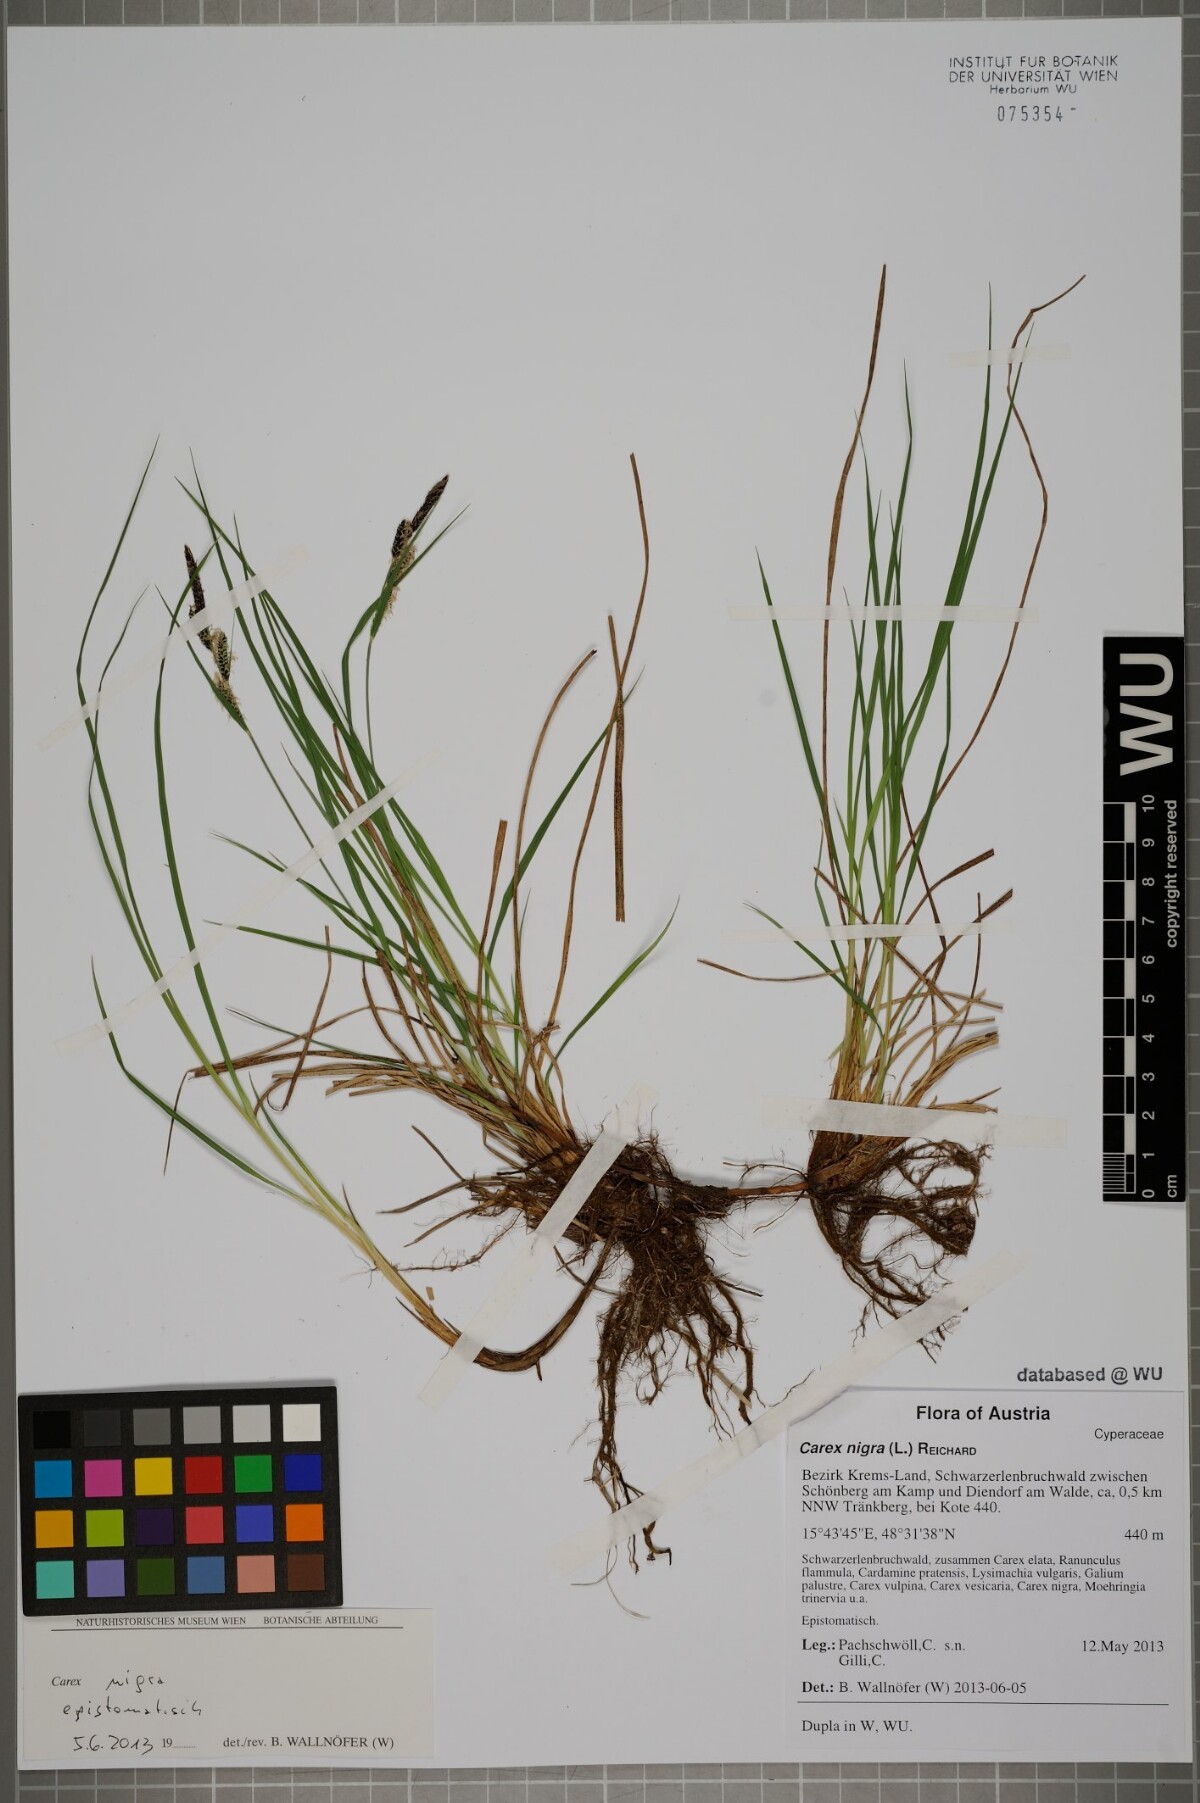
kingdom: Plantae
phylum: Tracheophyta
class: Liliopsida
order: Poales
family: Cyperaceae
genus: Carex
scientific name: Carex nigra
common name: Common sedge
